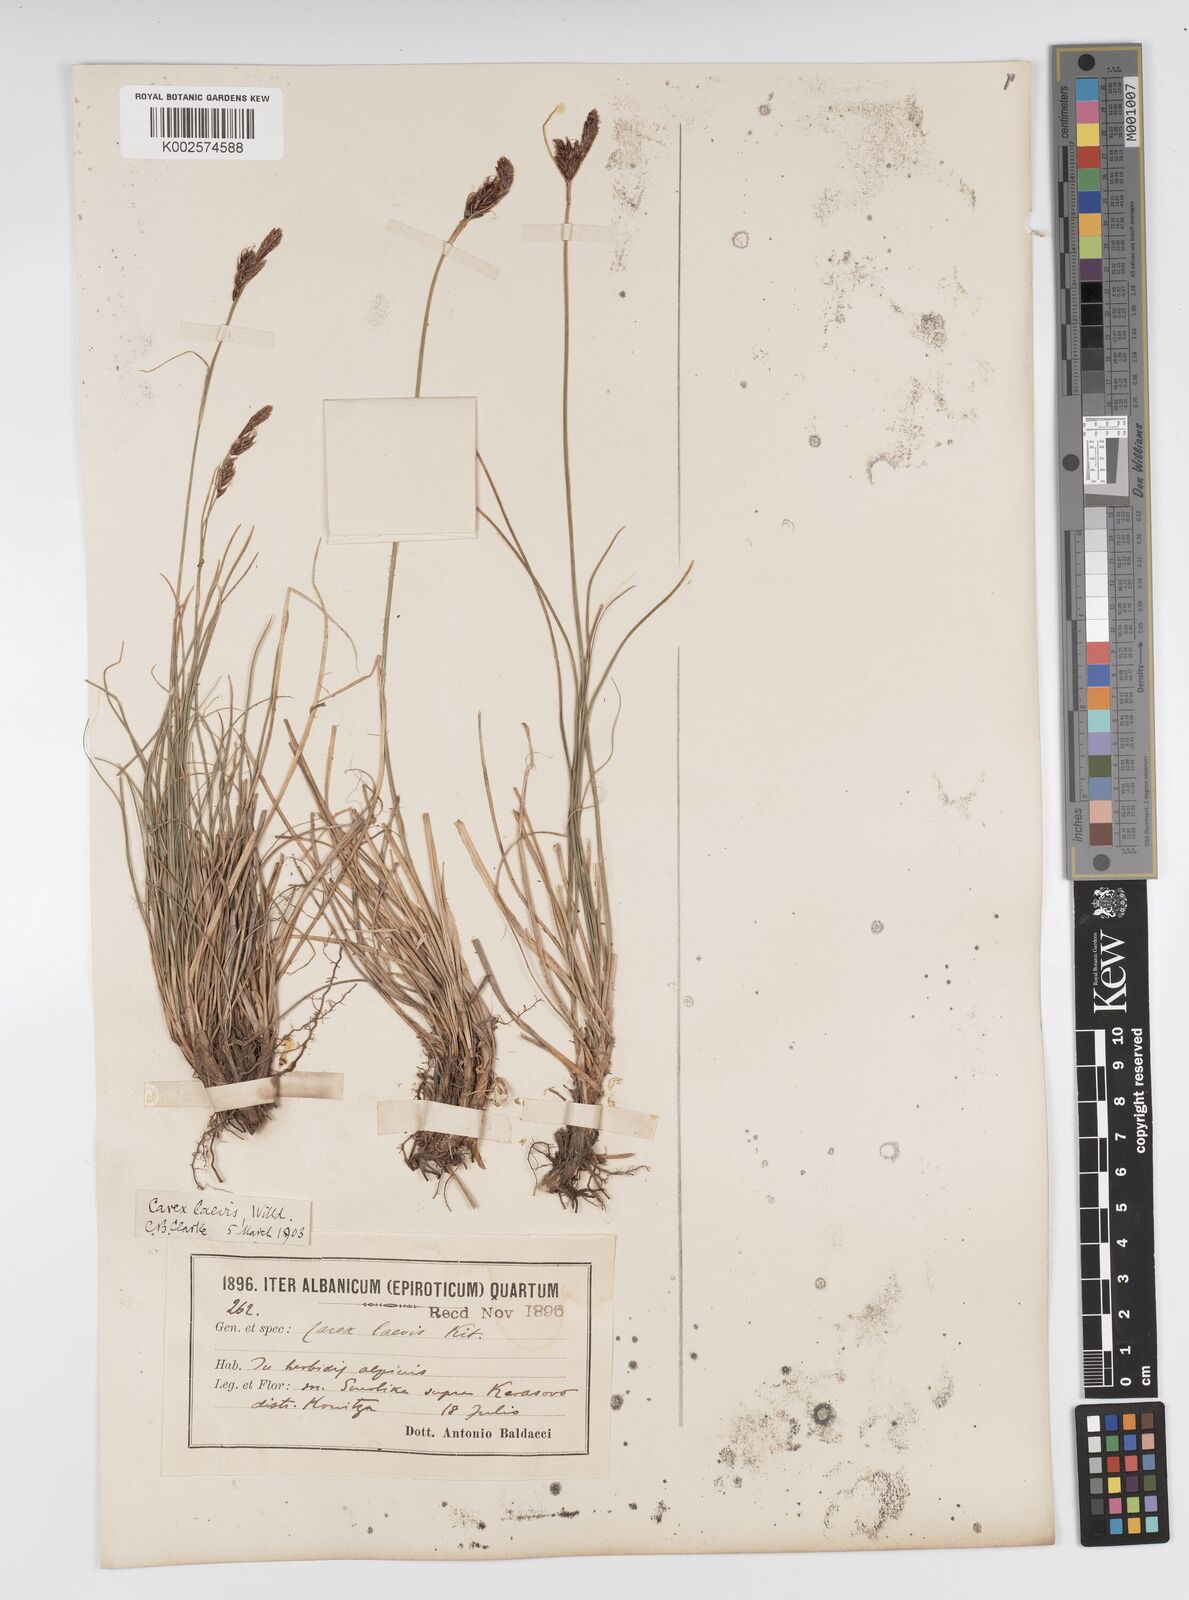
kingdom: Plantae
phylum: Tracheophyta
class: Liliopsida
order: Poales
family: Cyperaceae
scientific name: Cyperaceae
